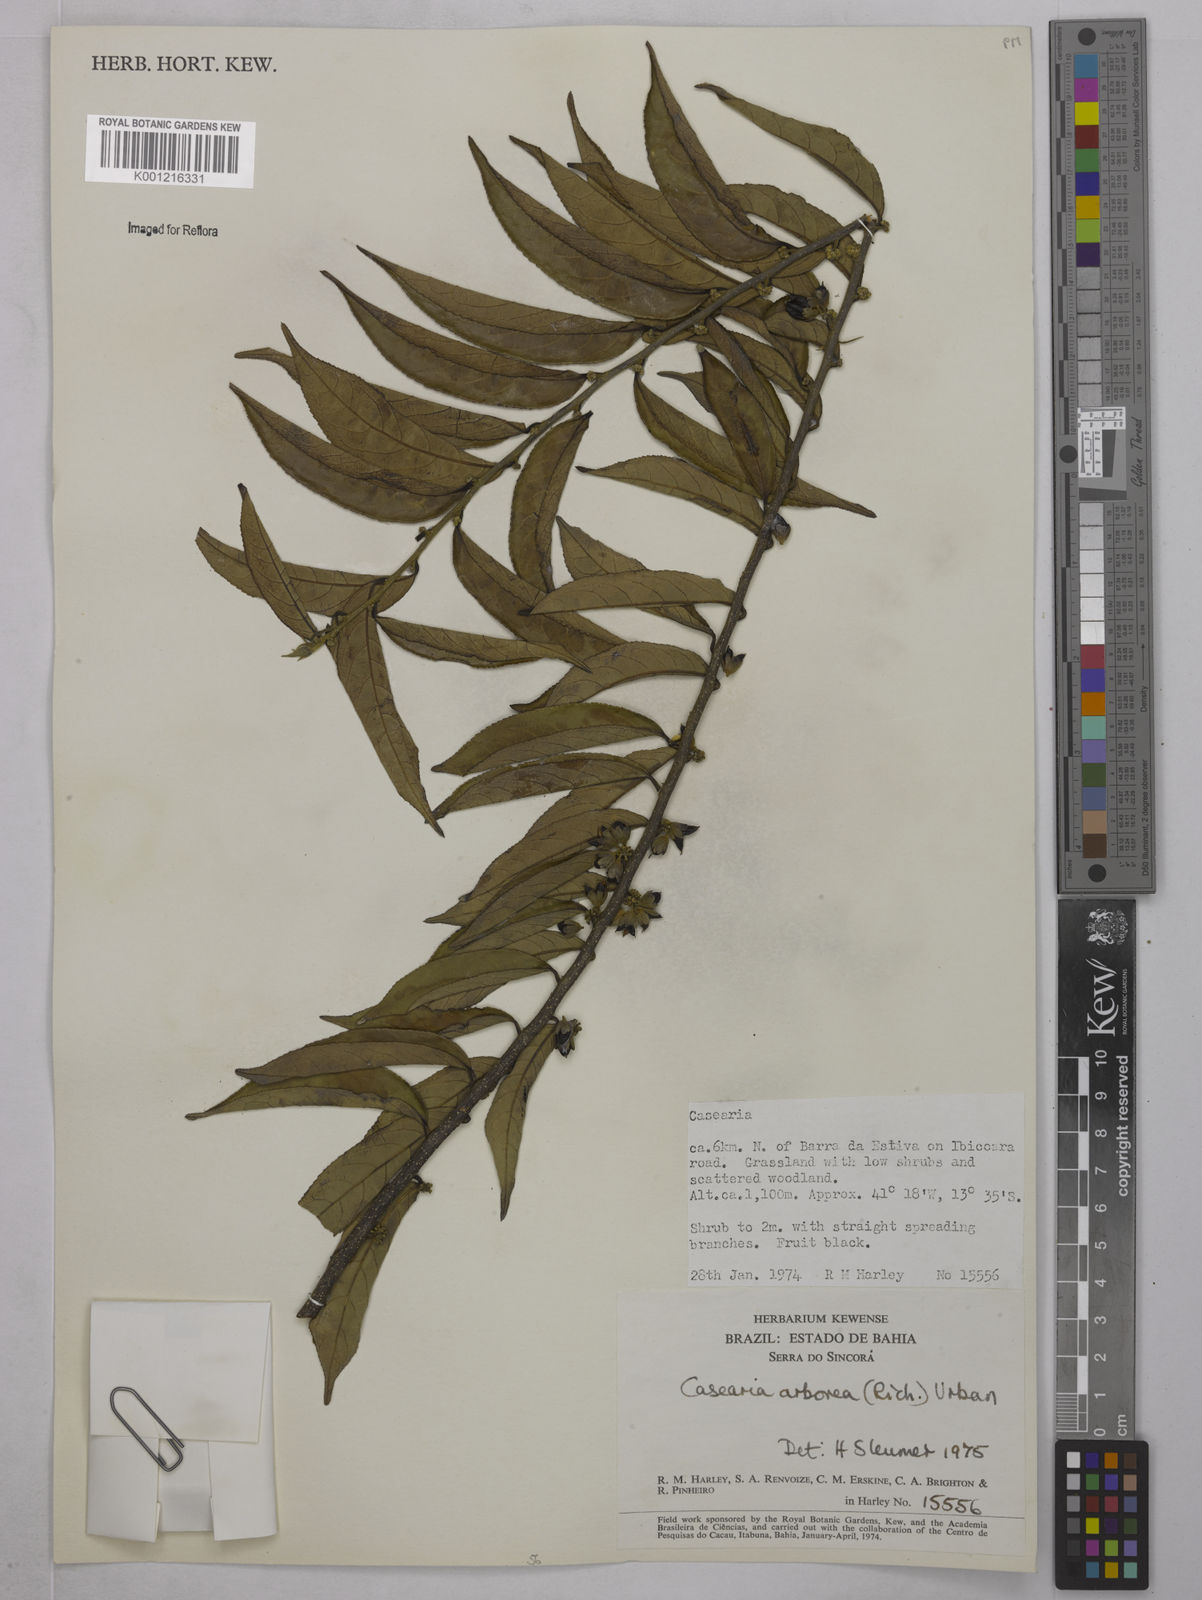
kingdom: Plantae
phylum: Tracheophyta
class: Magnoliopsida
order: Malpighiales
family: Salicaceae
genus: Casearia
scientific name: Casearia arborea
